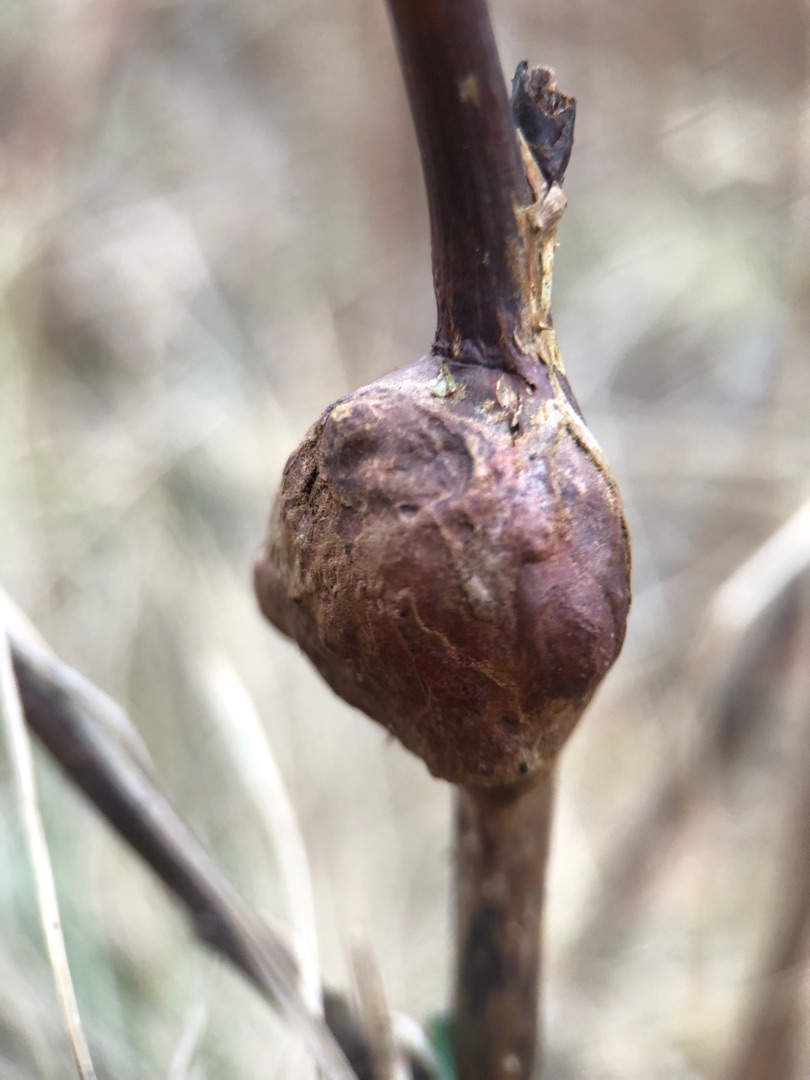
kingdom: Animalia
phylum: Arthropoda
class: Insecta
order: Diptera
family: Cecidomyiidae
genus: Lasioptera
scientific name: Lasioptera rubi
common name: Hindbærstængelgalmyg
